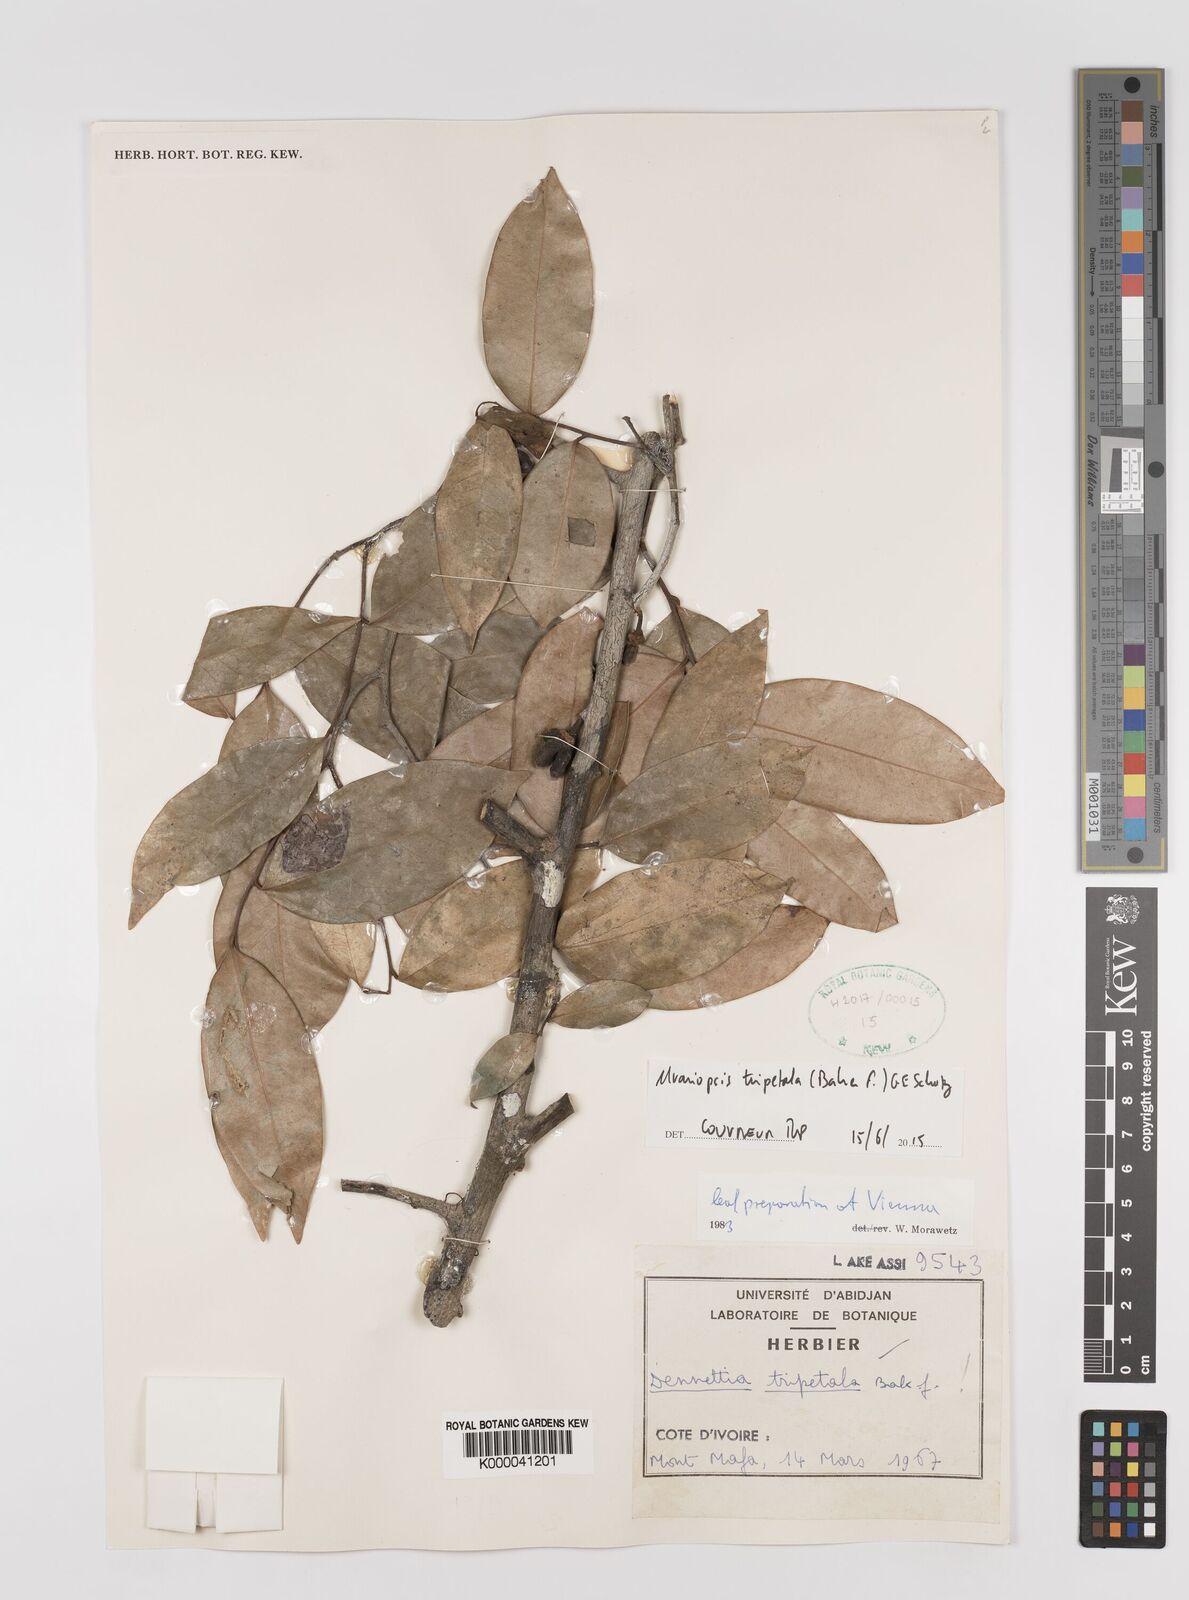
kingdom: Plantae
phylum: Tracheophyta
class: Magnoliopsida
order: Magnoliales
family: Annonaceae
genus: Uvariopsis
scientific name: Uvariopsis tripetala
